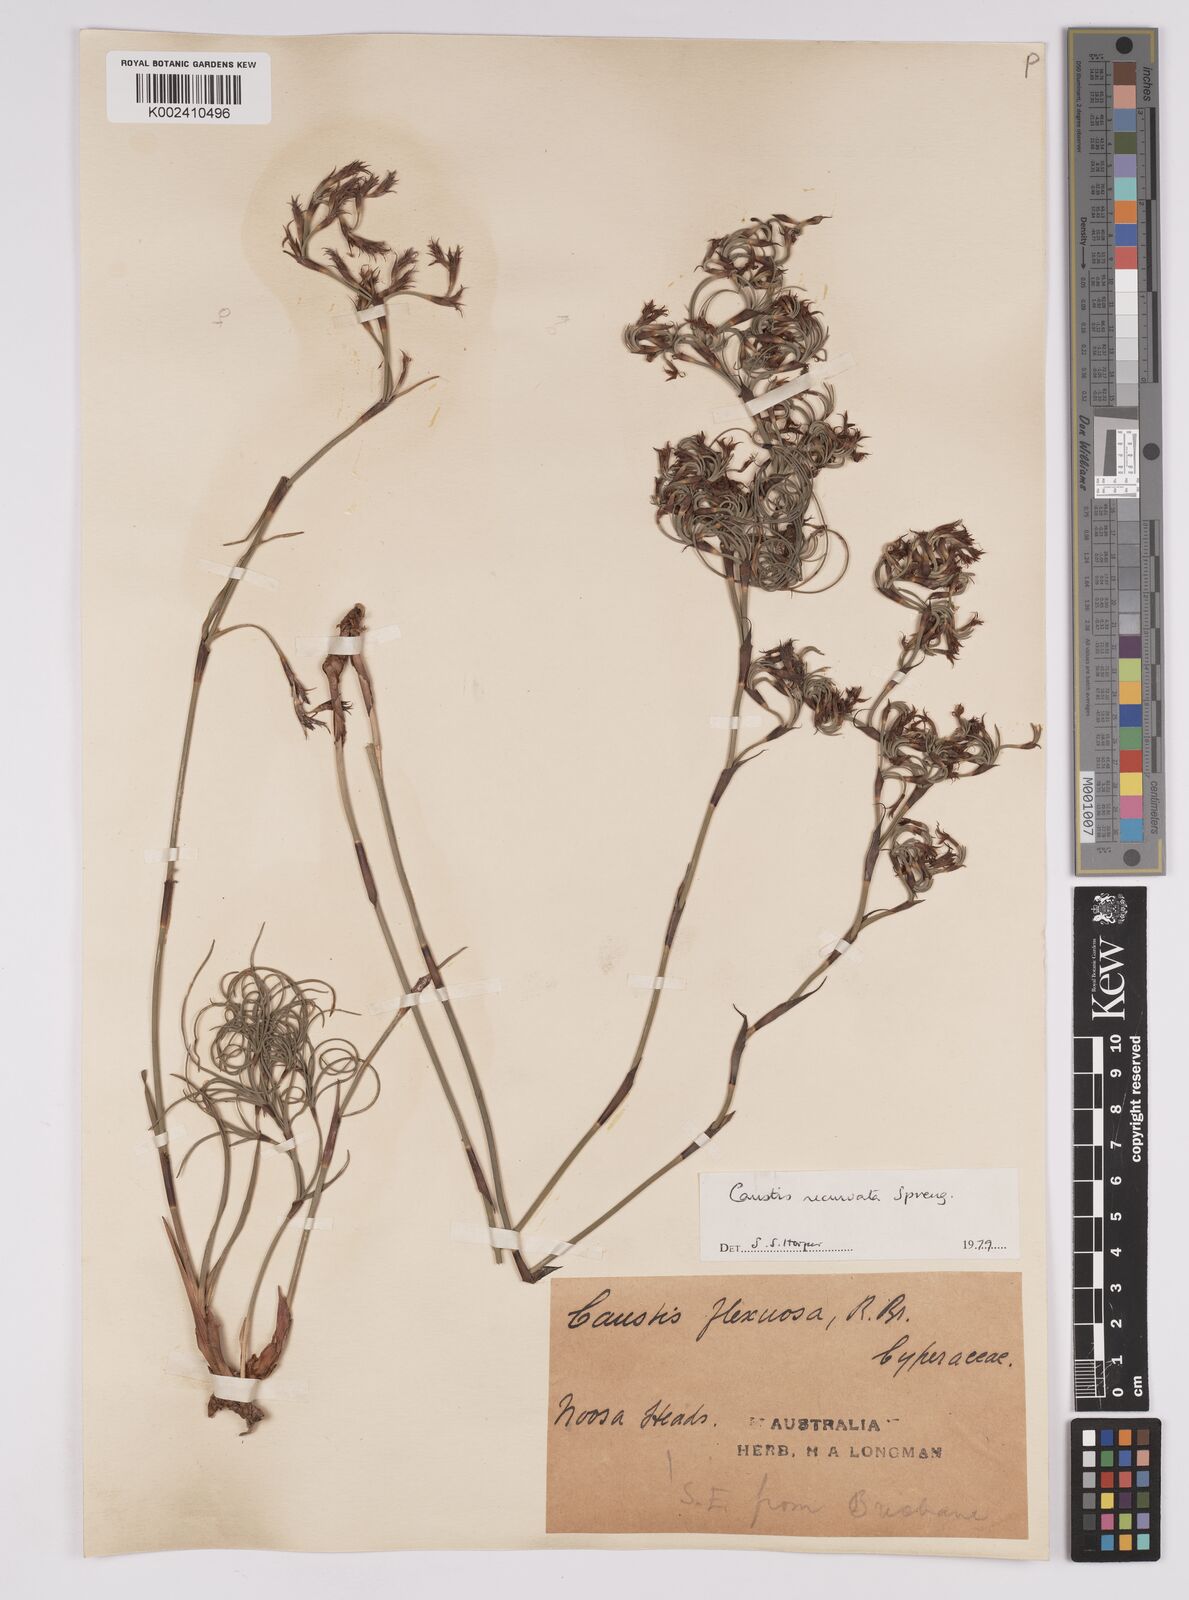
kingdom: Plantae
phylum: Tracheophyta
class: Liliopsida
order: Poales
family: Cyperaceae
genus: Caustis
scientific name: Caustis recurvata
